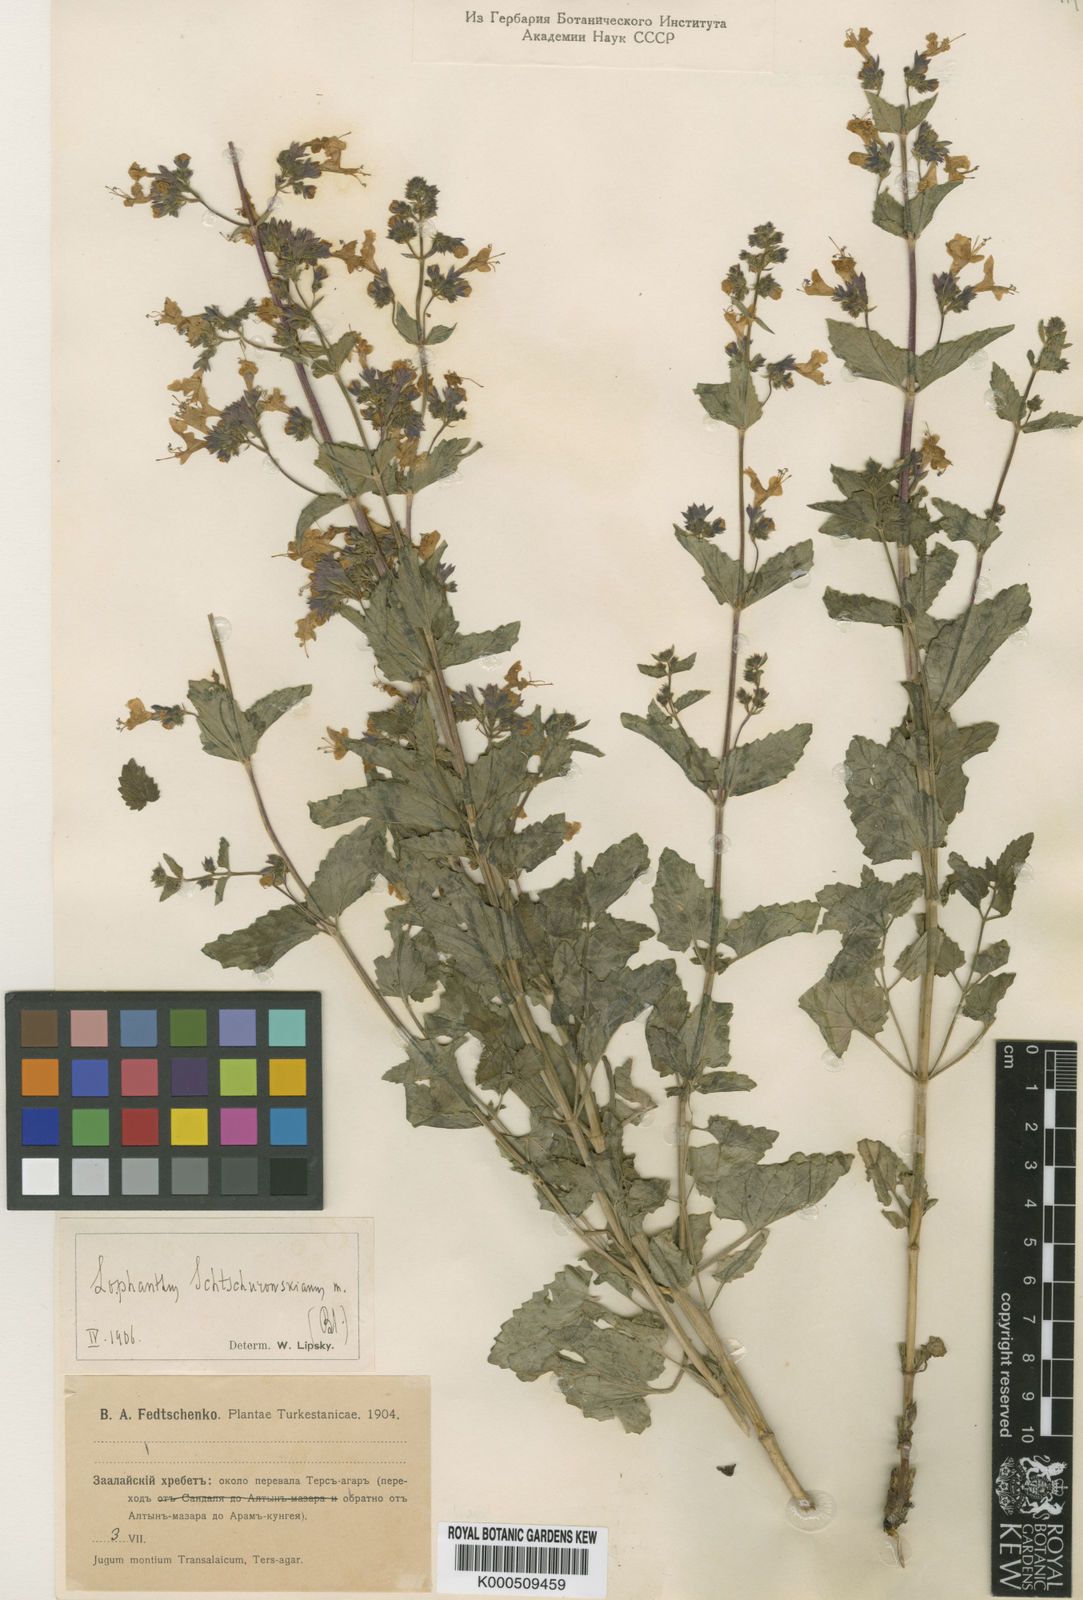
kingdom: Plantae
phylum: Tracheophyta
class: Magnoliopsida
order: Lamiales
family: Lamiaceae
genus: Nepeta
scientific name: Nepeta schtschurowskiana
